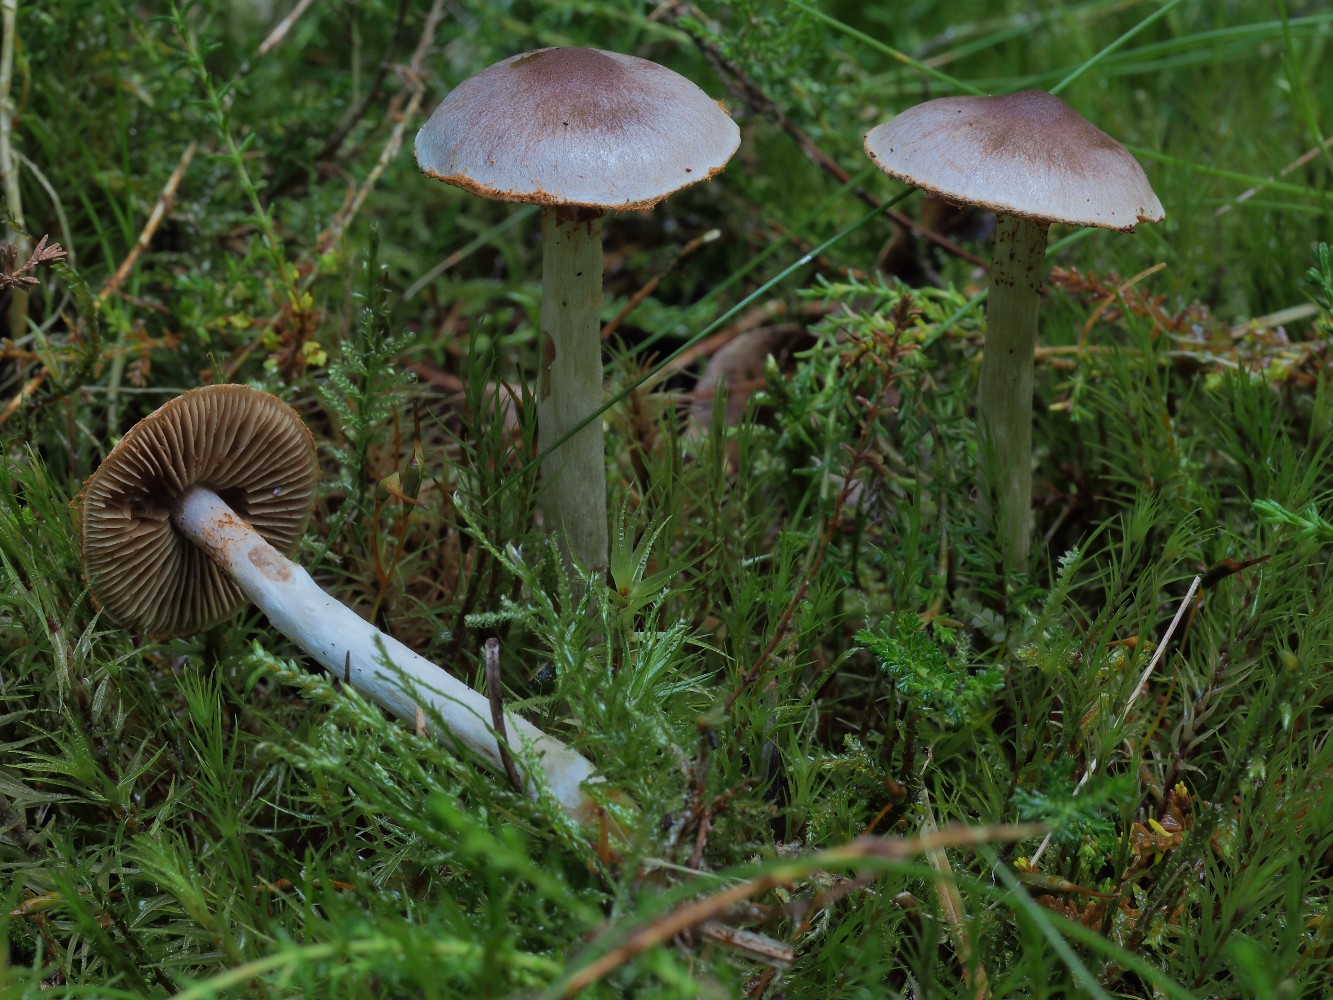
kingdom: Fungi
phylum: Basidiomycota
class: Agaricomycetes
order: Agaricales
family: Cortinariaceae
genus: Cortinarius
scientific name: Cortinarius kauffmanianus
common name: plantage-slørhat
